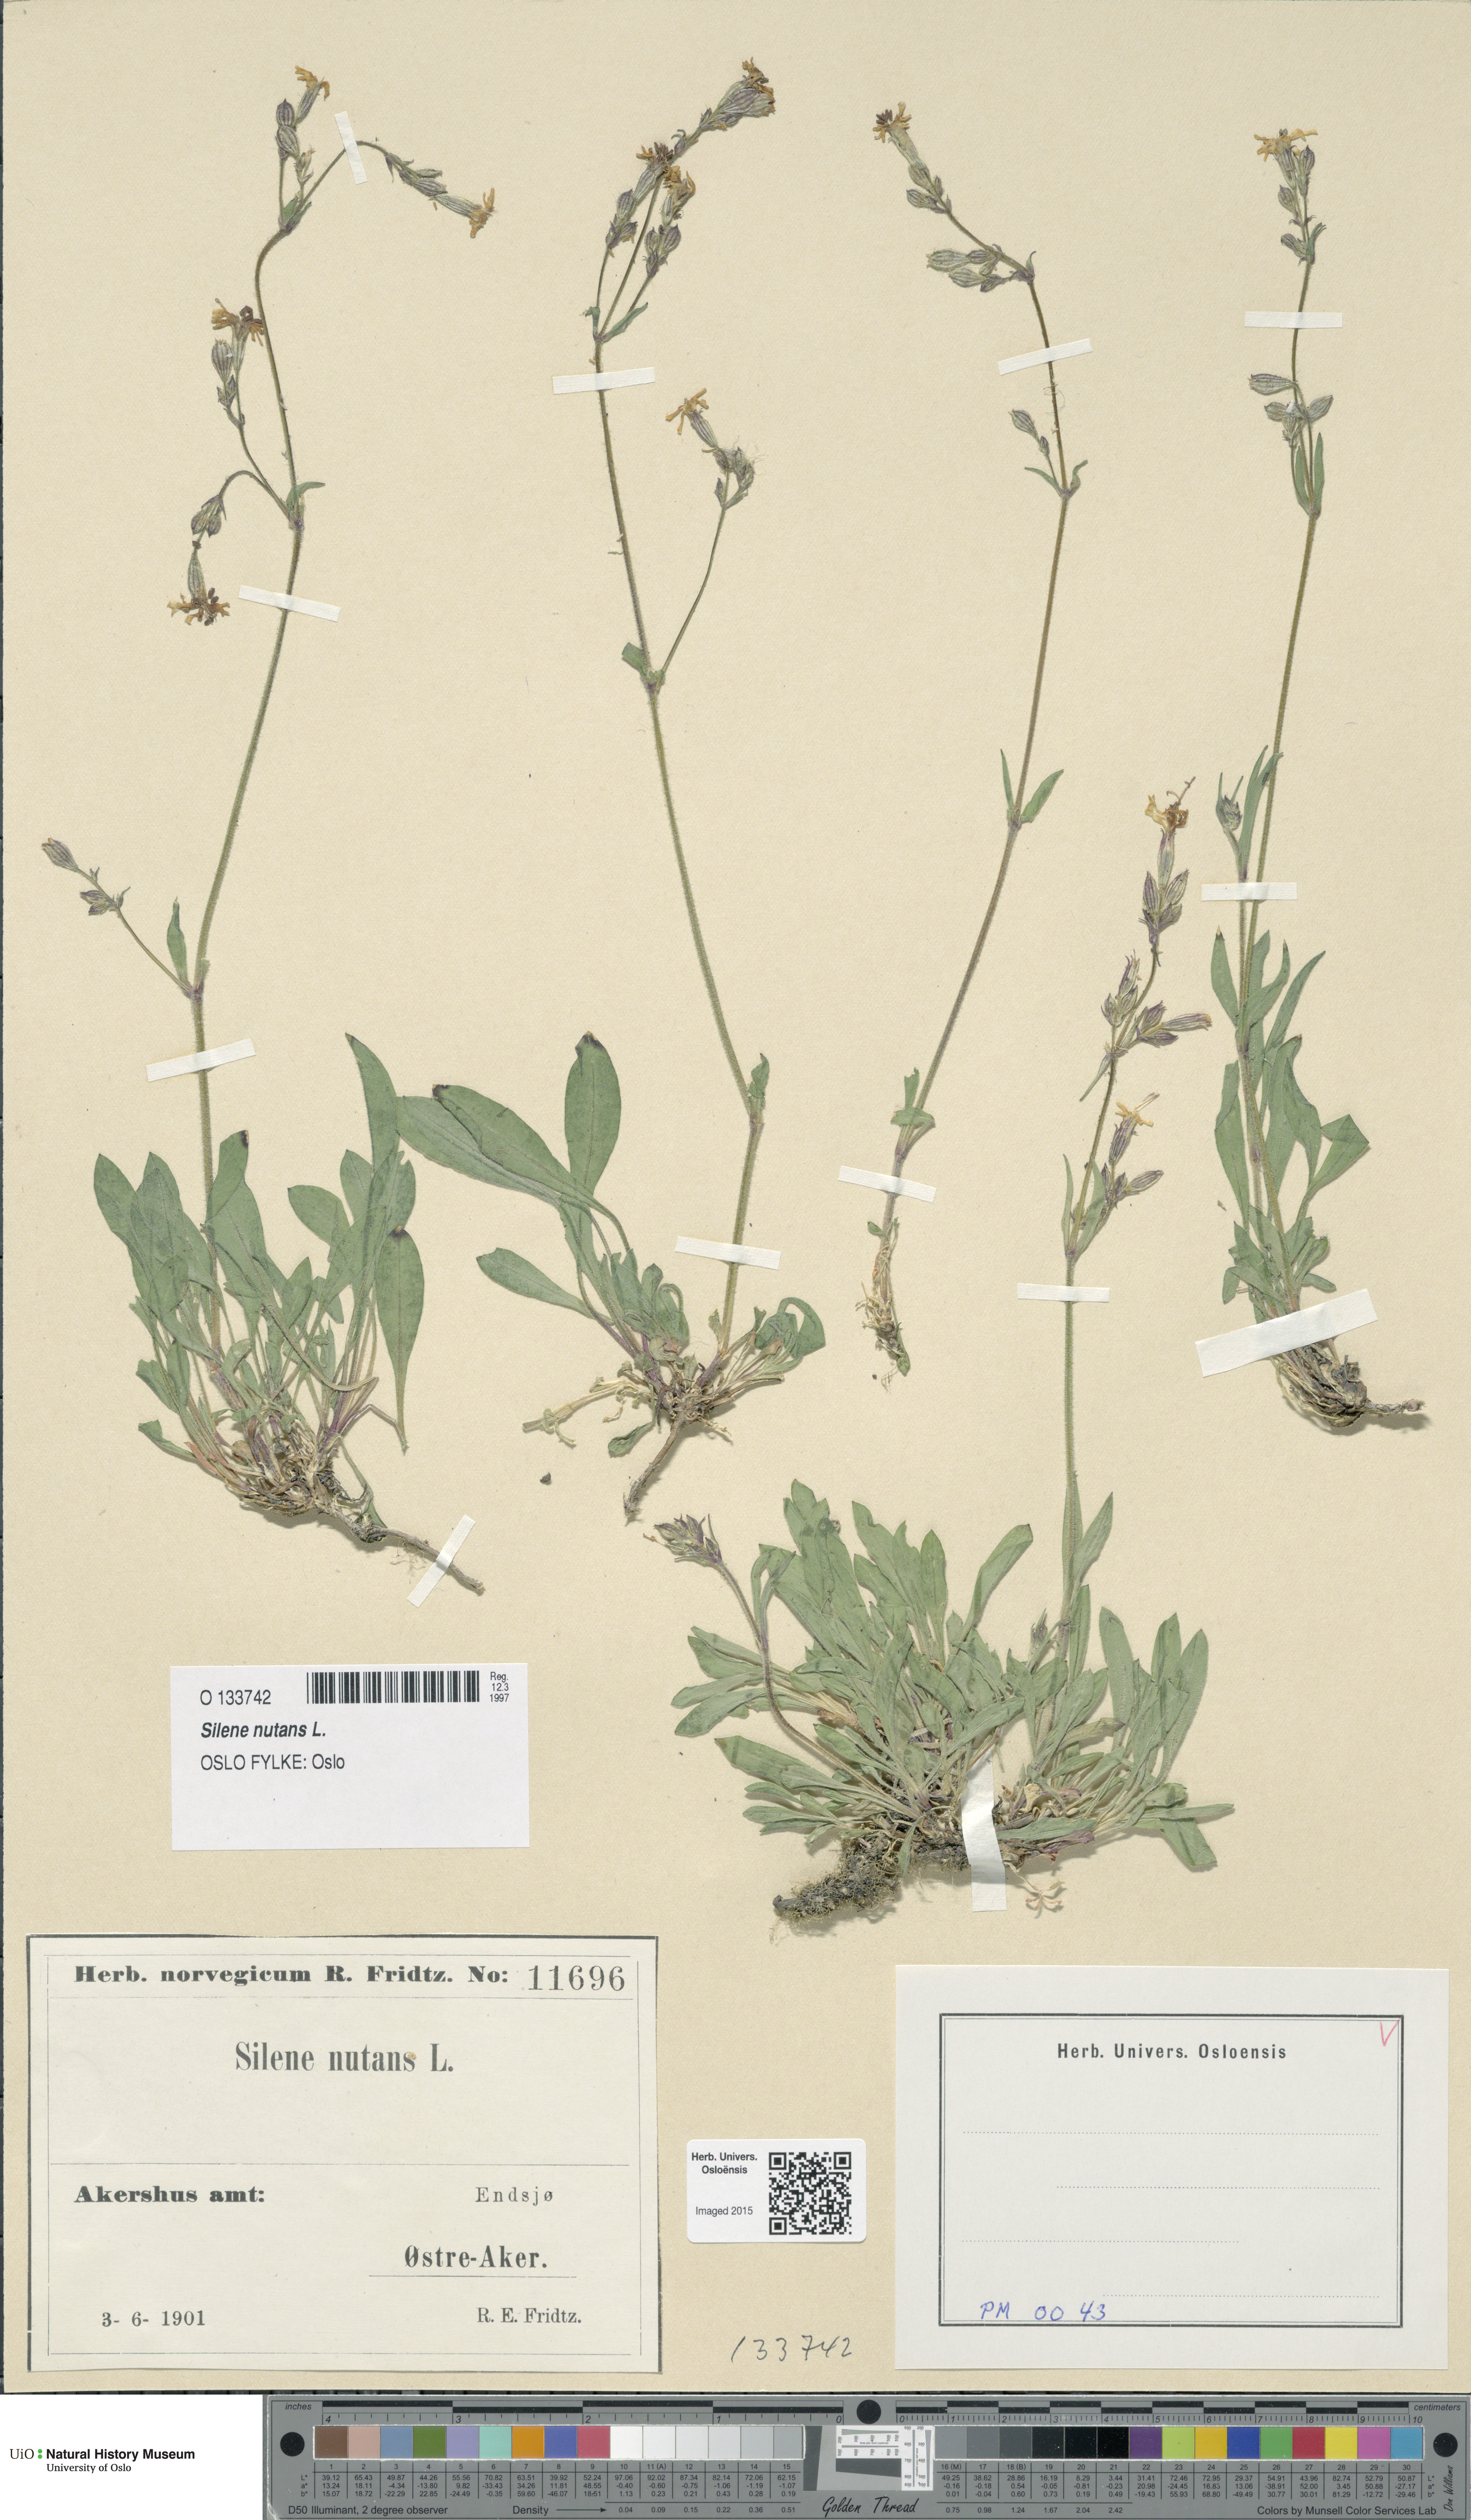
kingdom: Plantae
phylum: Tracheophyta
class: Magnoliopsida
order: Caryophyllales
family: Caryophyllaceae
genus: Silene
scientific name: Silene nutans
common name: Nottingham catchfly
